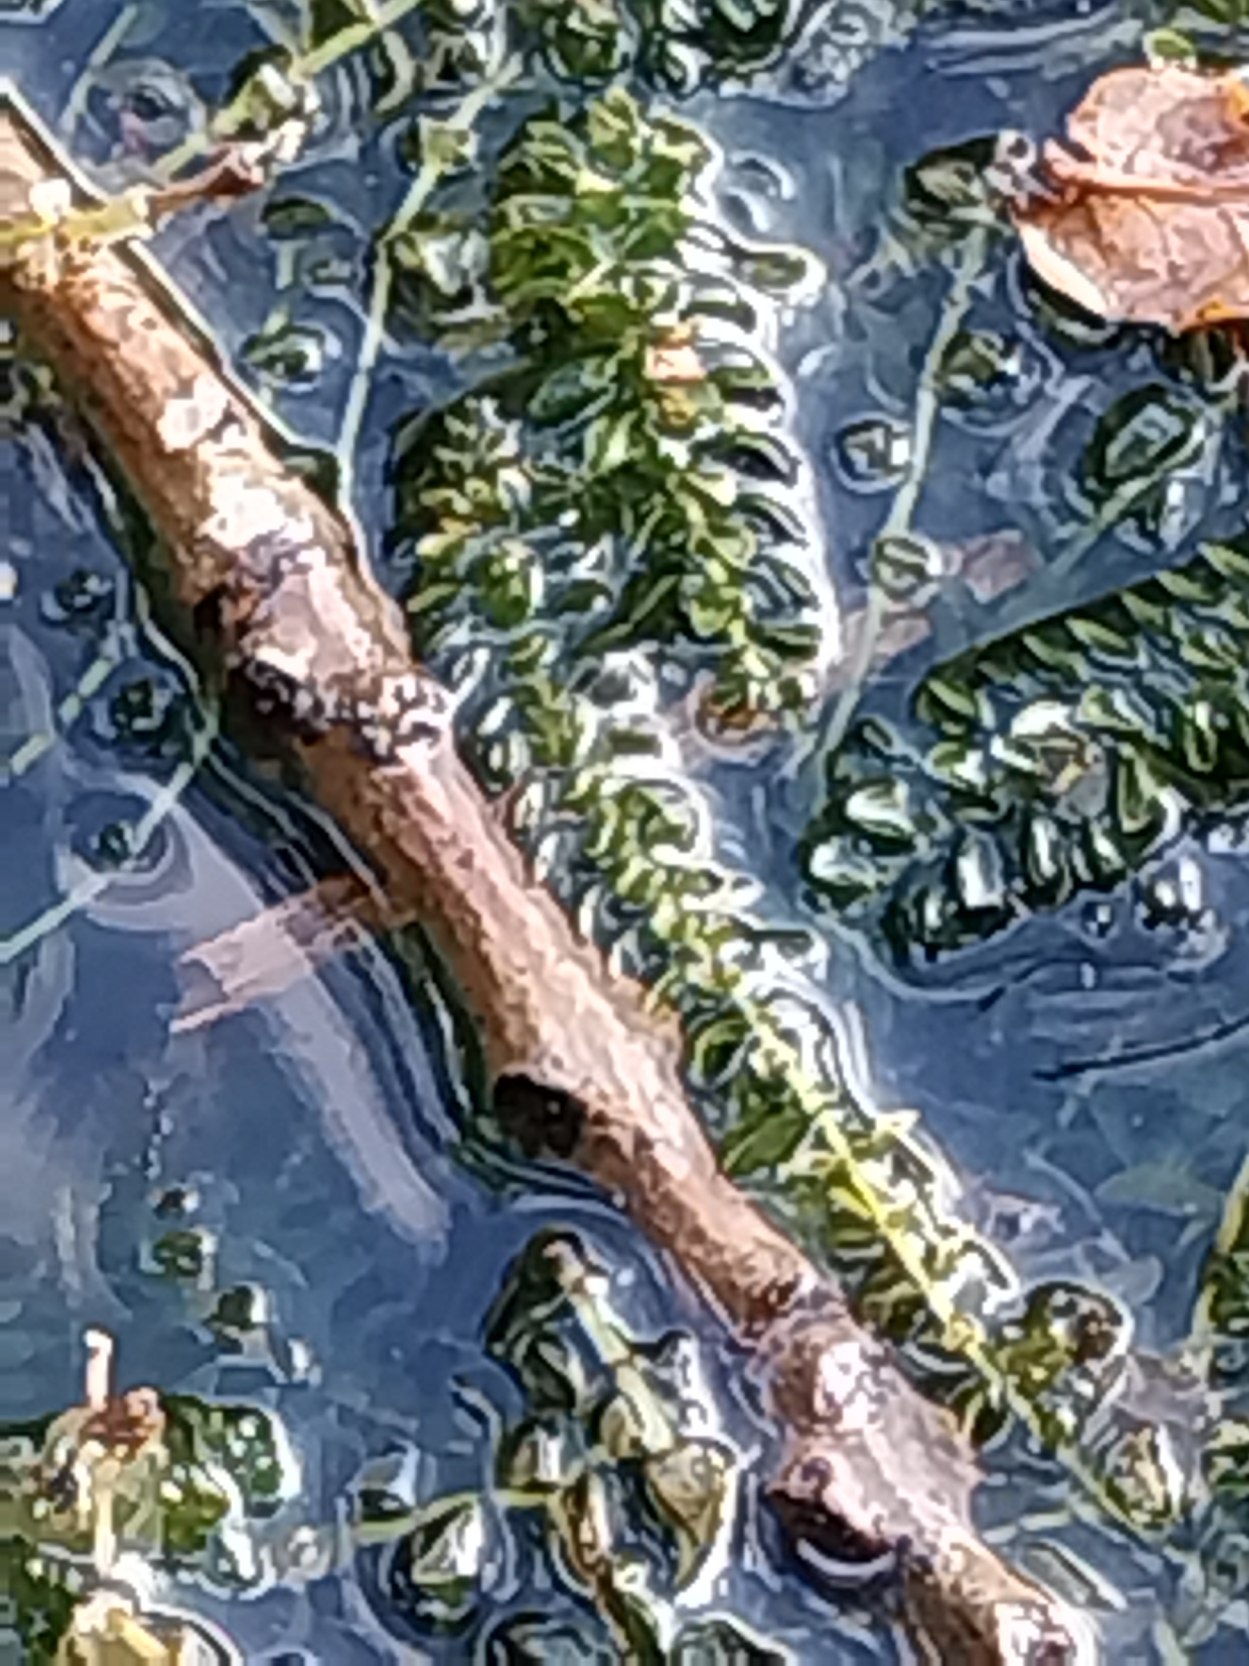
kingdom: Plantae
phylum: Tracheophyta
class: Liliopsida
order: Alismatales
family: Hydrocharitaceae
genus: Elodea
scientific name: Elodea canadensis
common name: Vandpest
